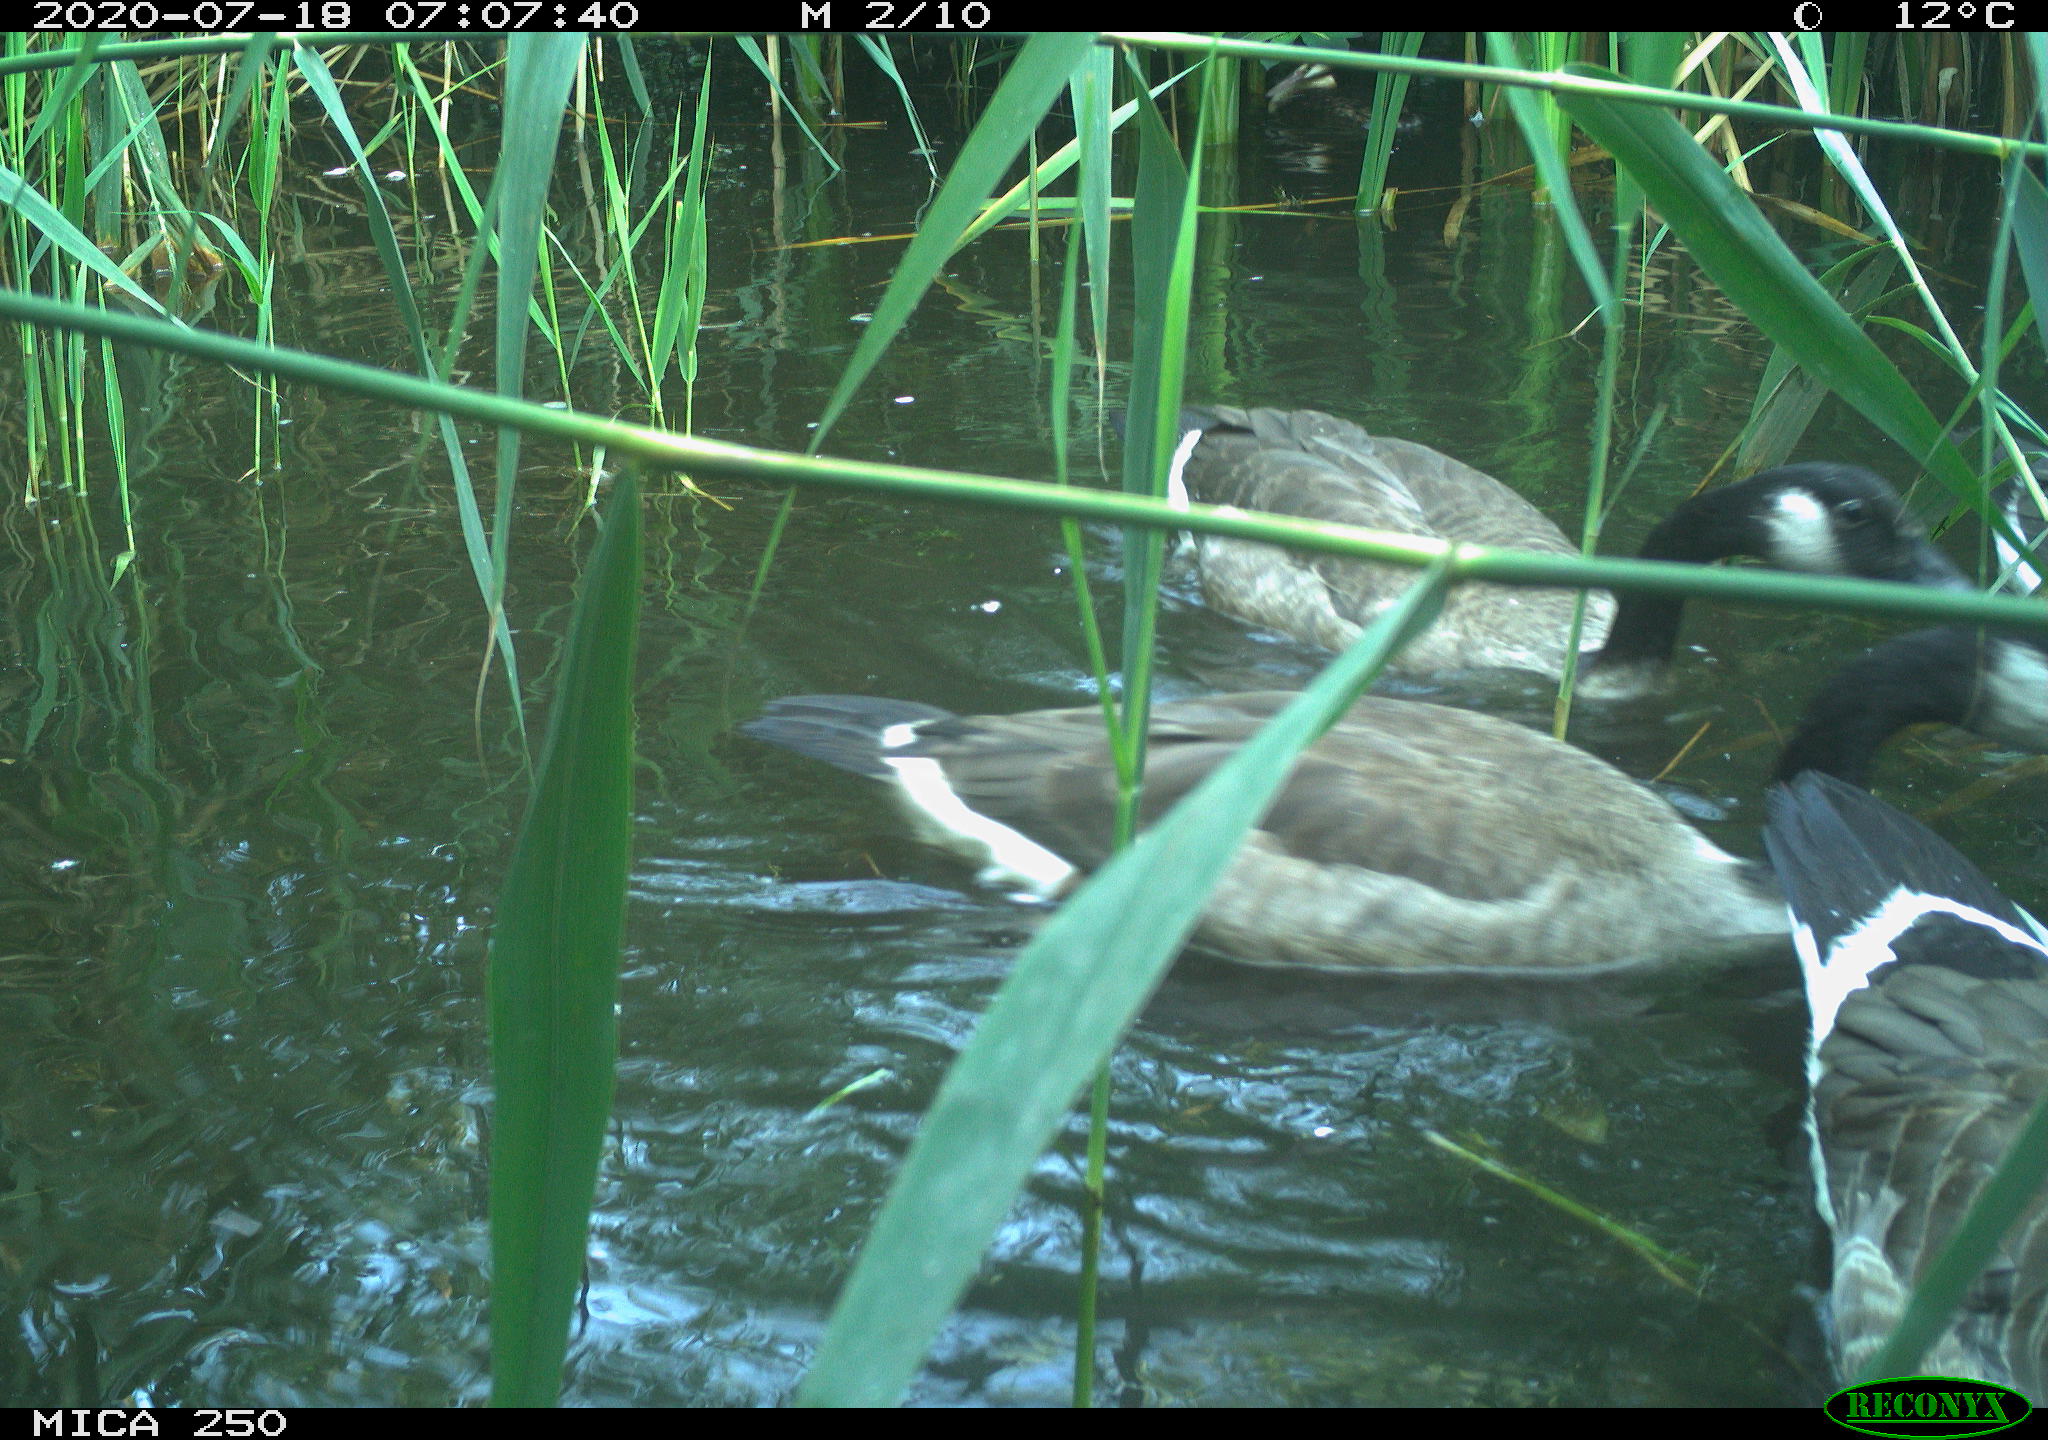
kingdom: Animalia
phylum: Chordata
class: Aves
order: Anseriformes
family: Anatidae
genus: Branta
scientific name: Branta canadensis
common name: Canada goose
